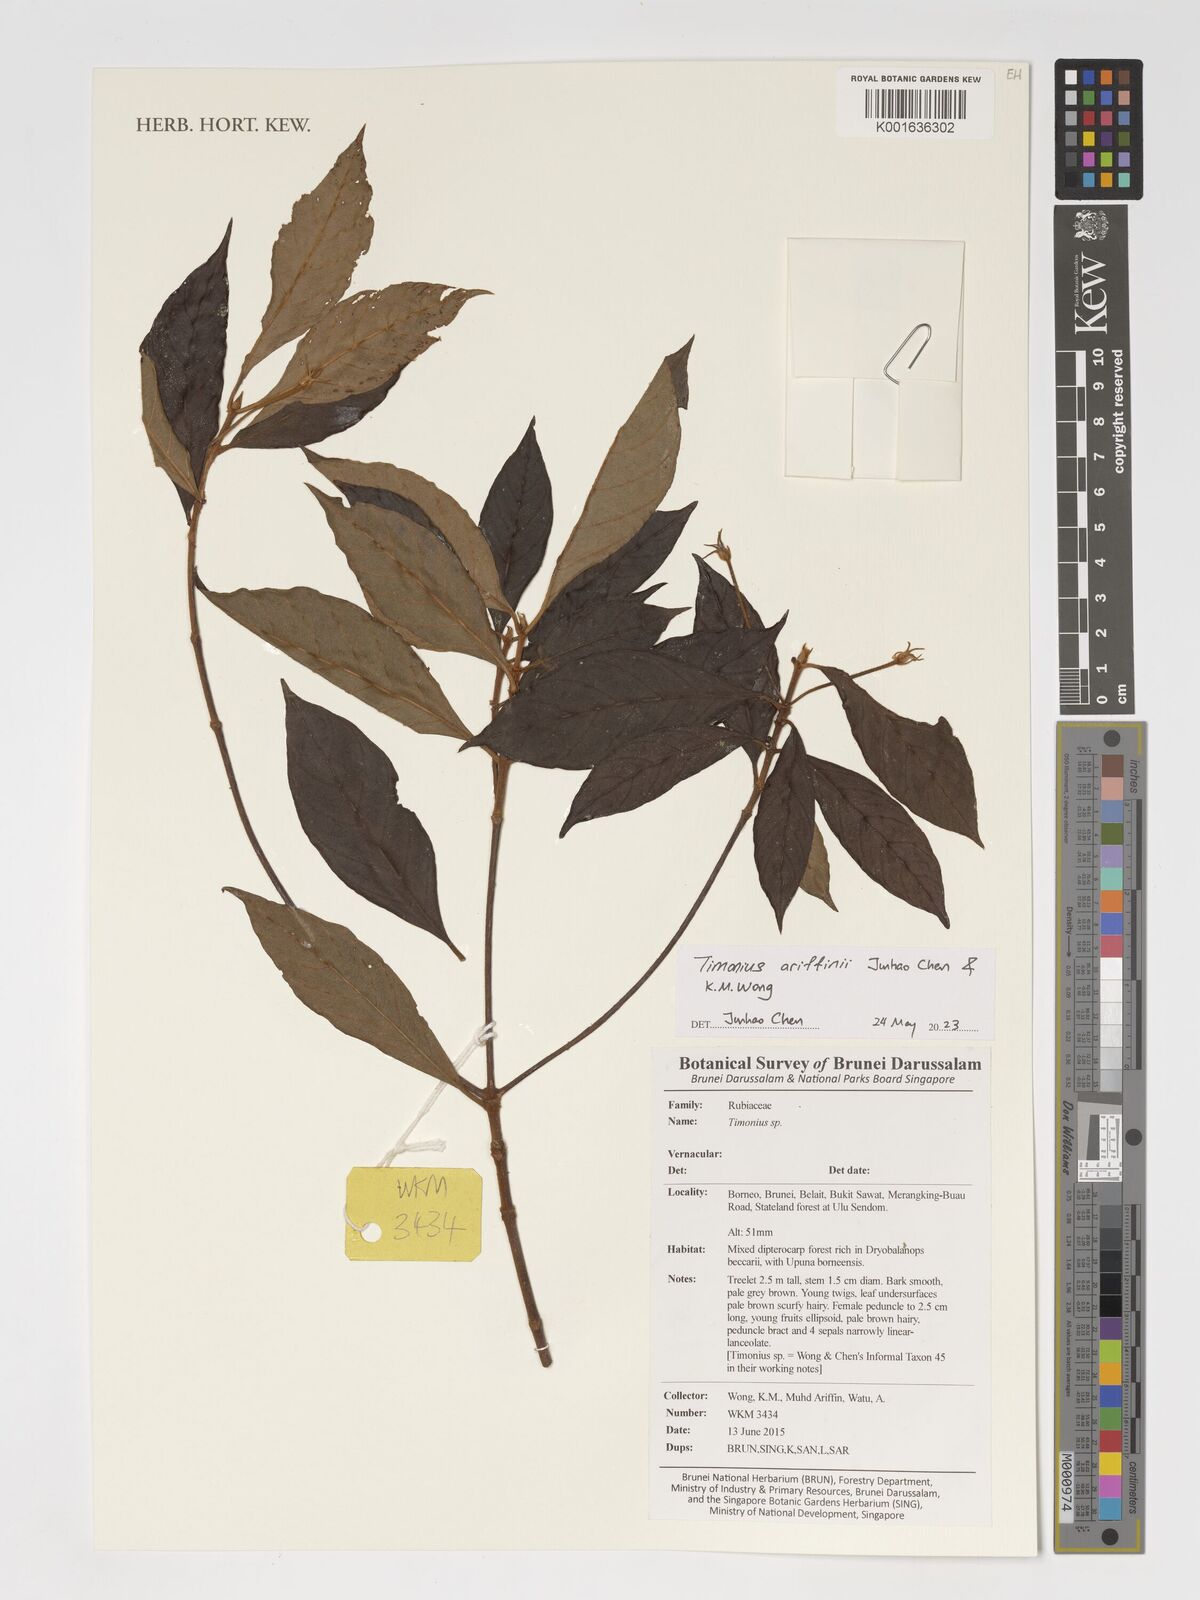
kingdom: Plantae
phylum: Tracheophyta
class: Magnoliopsida
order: Gentianales
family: Rubiaceae
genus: Timonius
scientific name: Timonius
